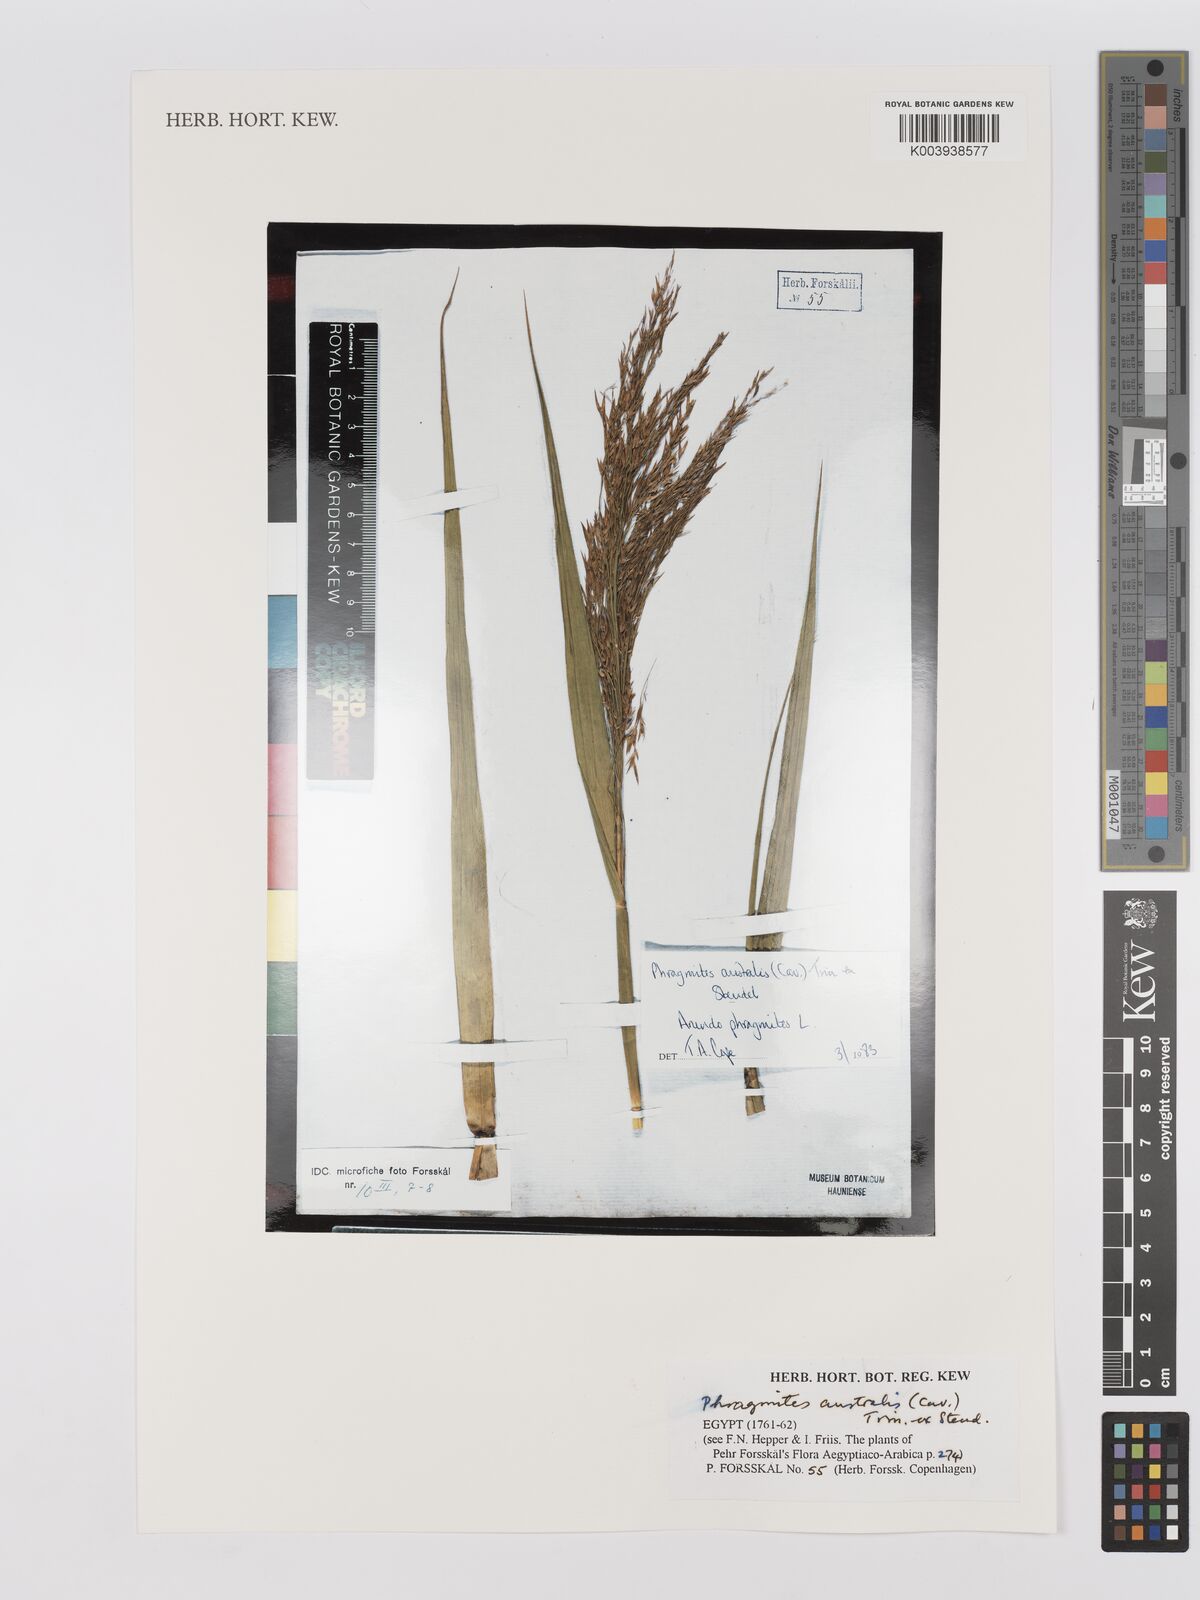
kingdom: Plantae
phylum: Tracheophyta
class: Liliopsida
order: Poales
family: Poaceae
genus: Phragmites
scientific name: Phragmites australis
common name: Common reed
